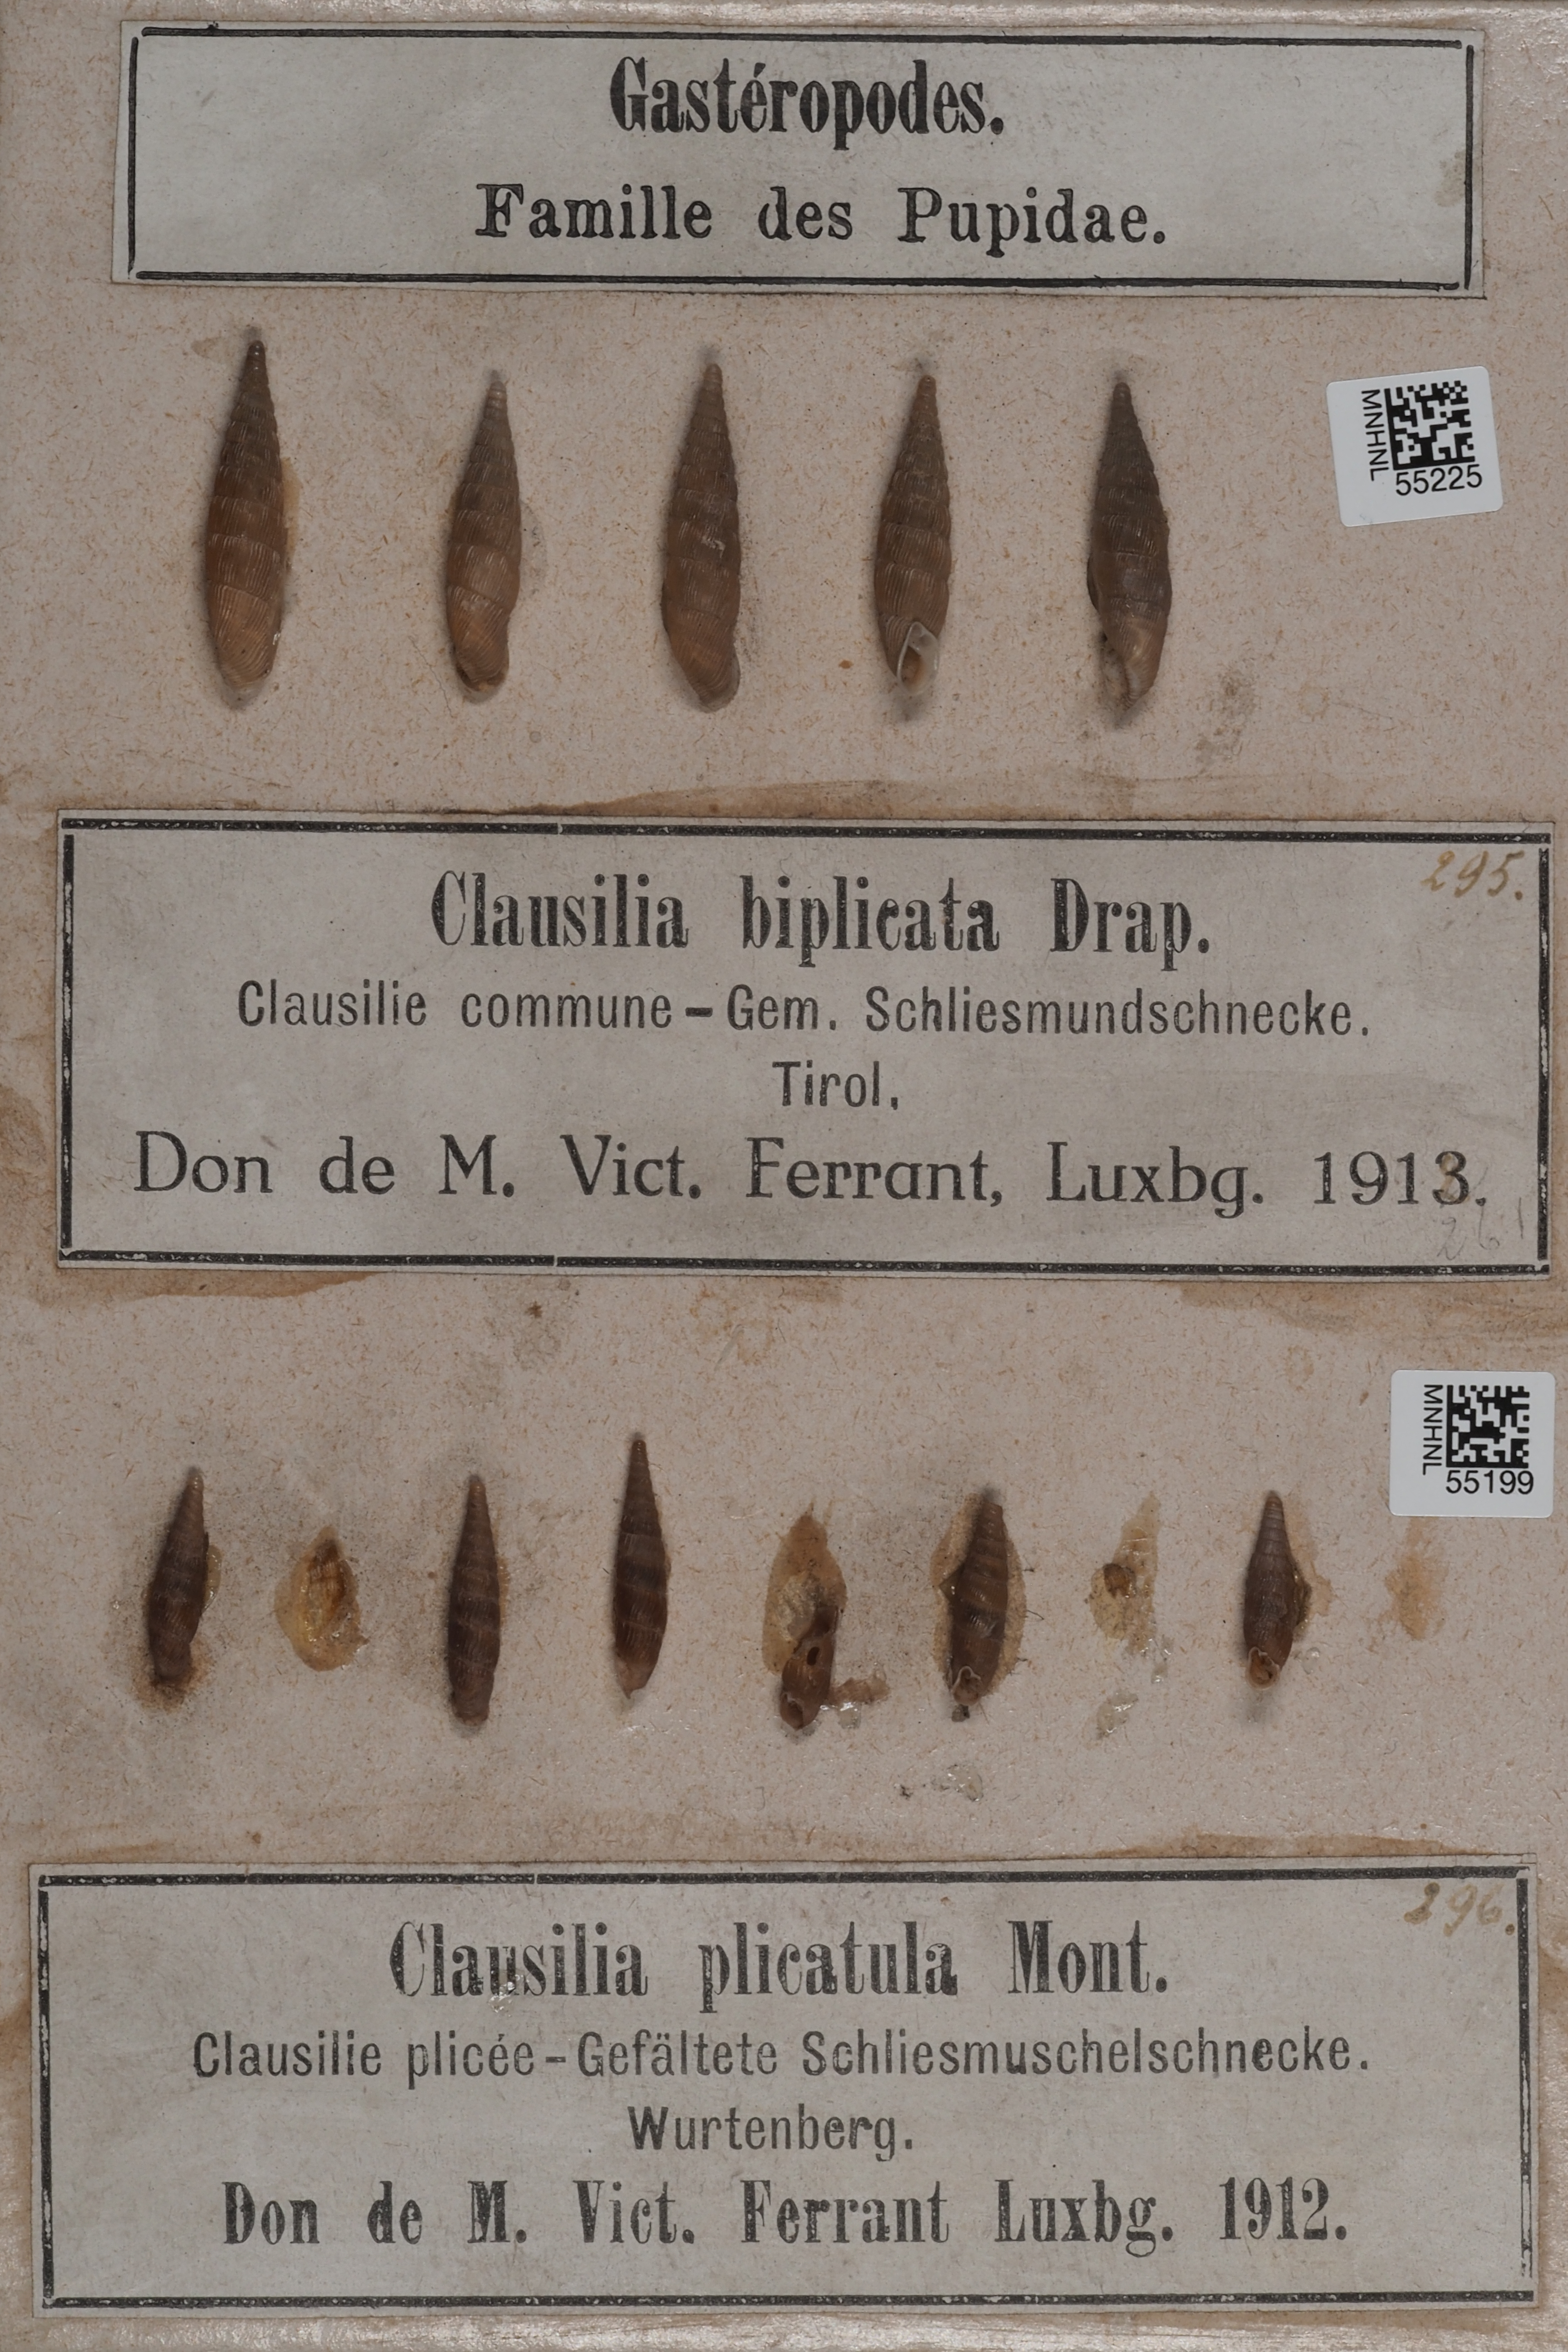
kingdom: Animalia
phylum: Mollusca
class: Gastropoda
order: Stylommatophora
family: Clausiliidae
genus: Macrogastra
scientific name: Macrogastra plicatula
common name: Plicate door snail
